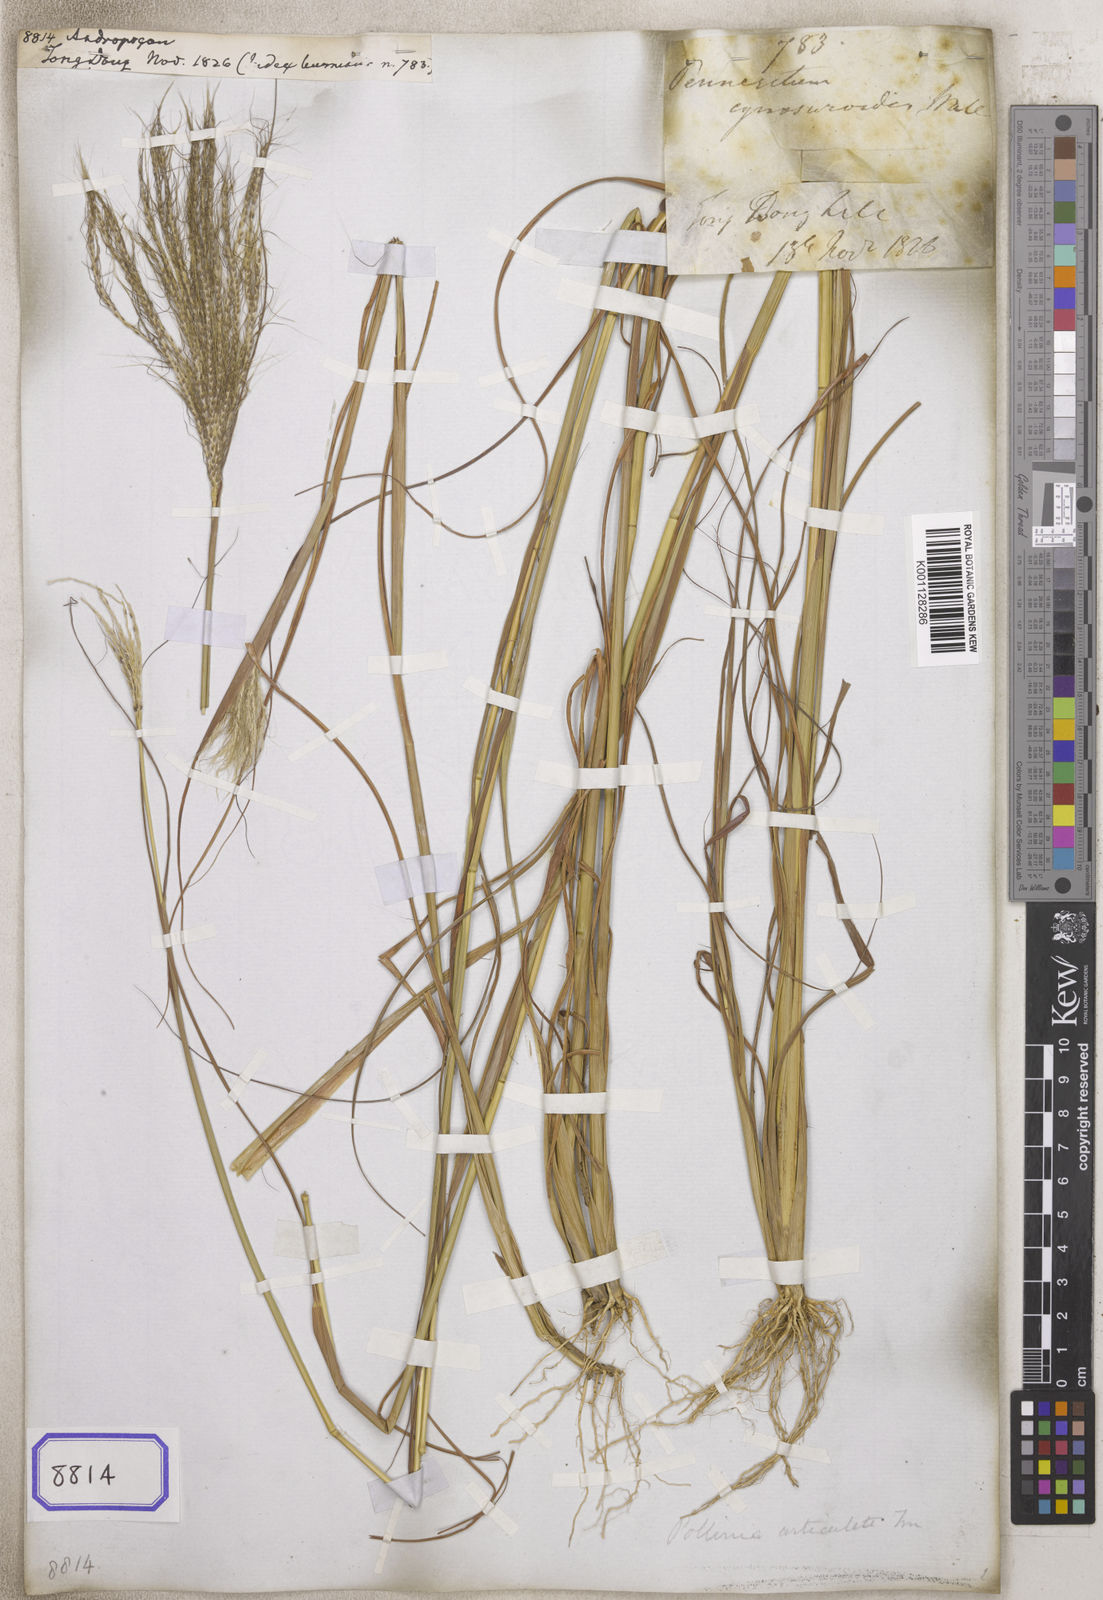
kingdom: Plantae
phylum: Tracheophyta
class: Liliopsida
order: Poales
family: Poaceae
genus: Andropogon
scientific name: Andropogon
